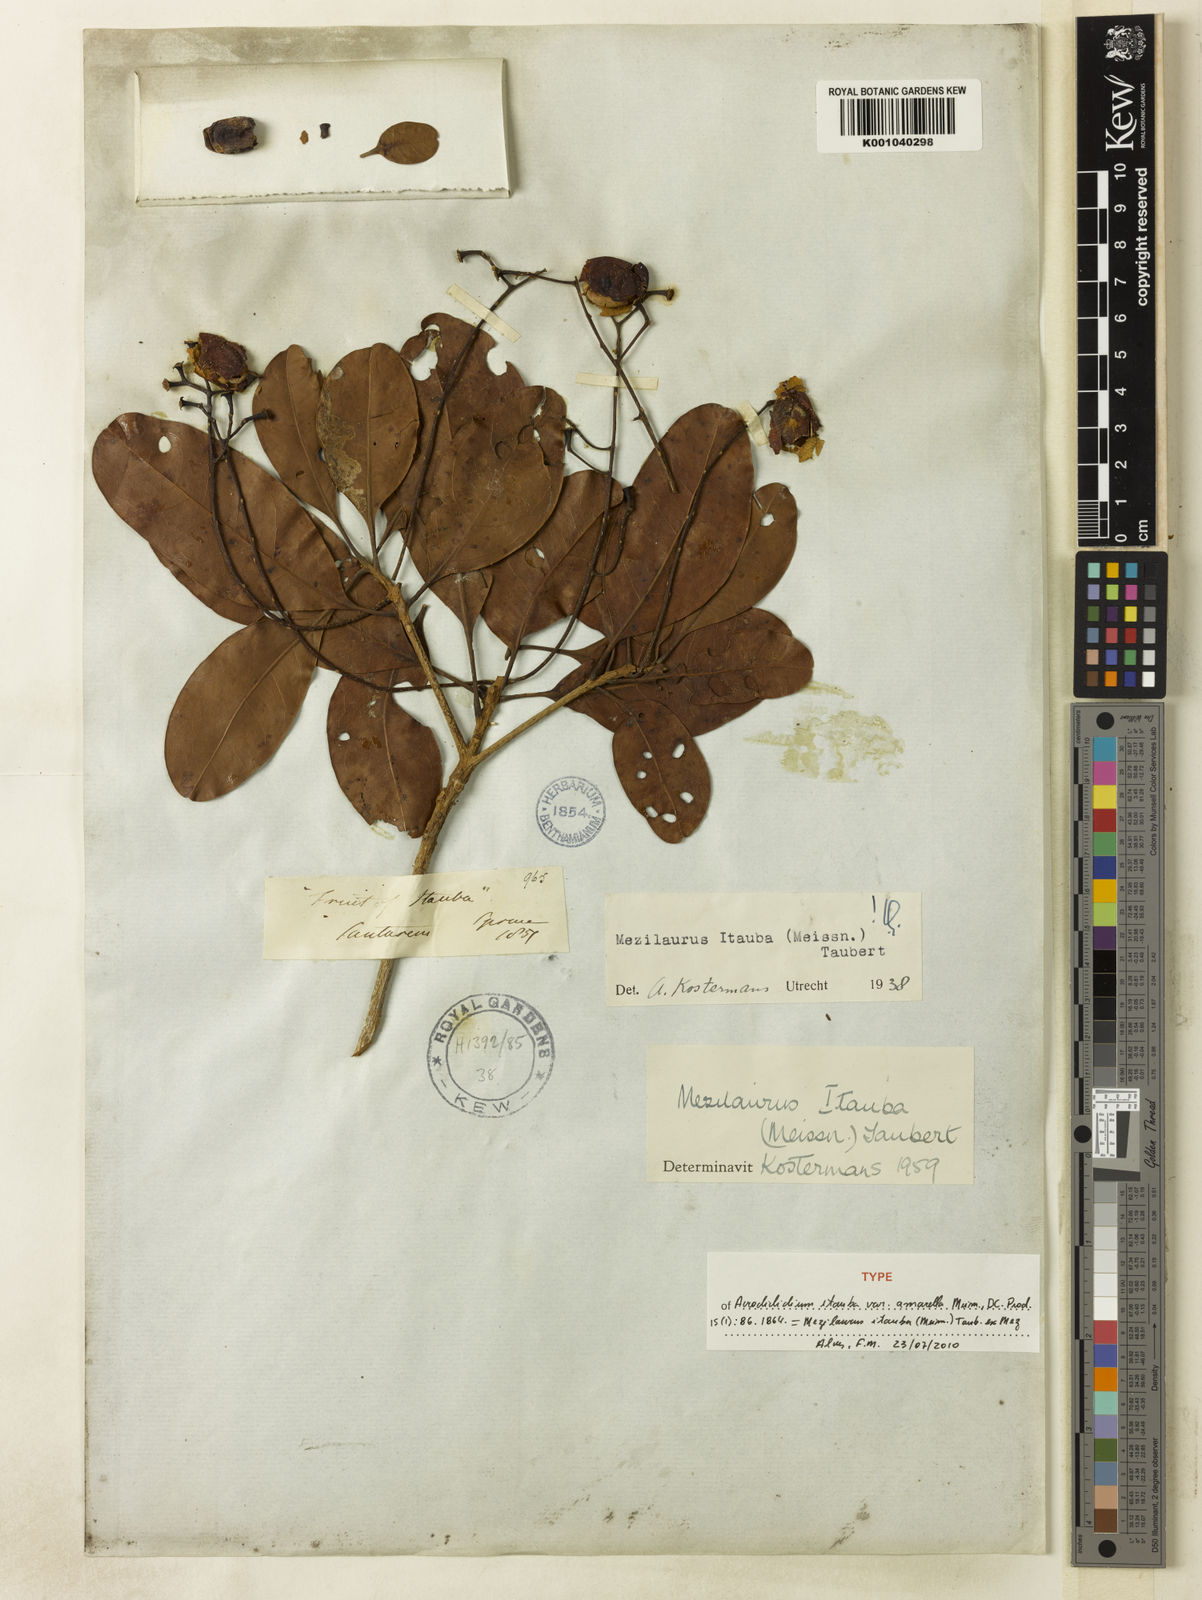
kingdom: Plantae
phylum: Tracheophyta
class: Magnoliopsida
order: Laurales
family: Lauraceae
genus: Mezilaurus
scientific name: Mezilaurus ita-uba
